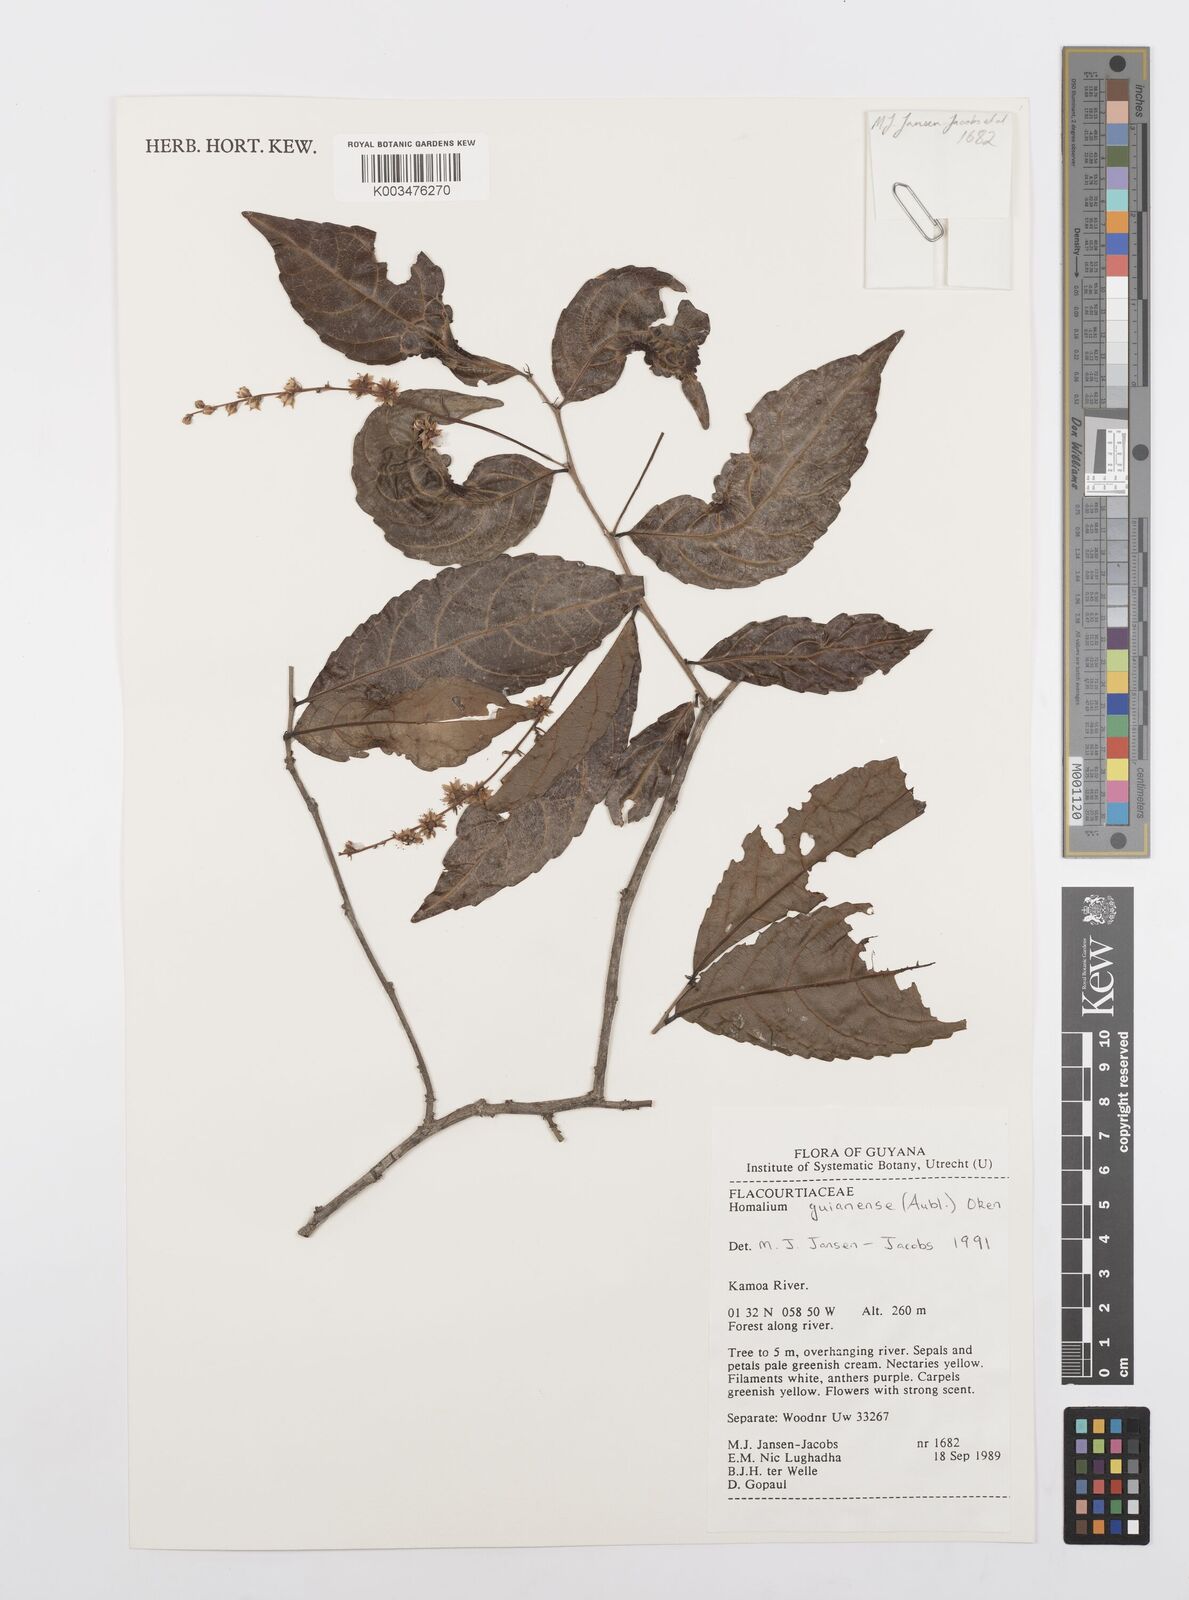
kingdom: Plantae
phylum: Tracheophyta
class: Magnoliopsida
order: Malpighiales
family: Salicaceae
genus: Homalium
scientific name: Homalium guianense
